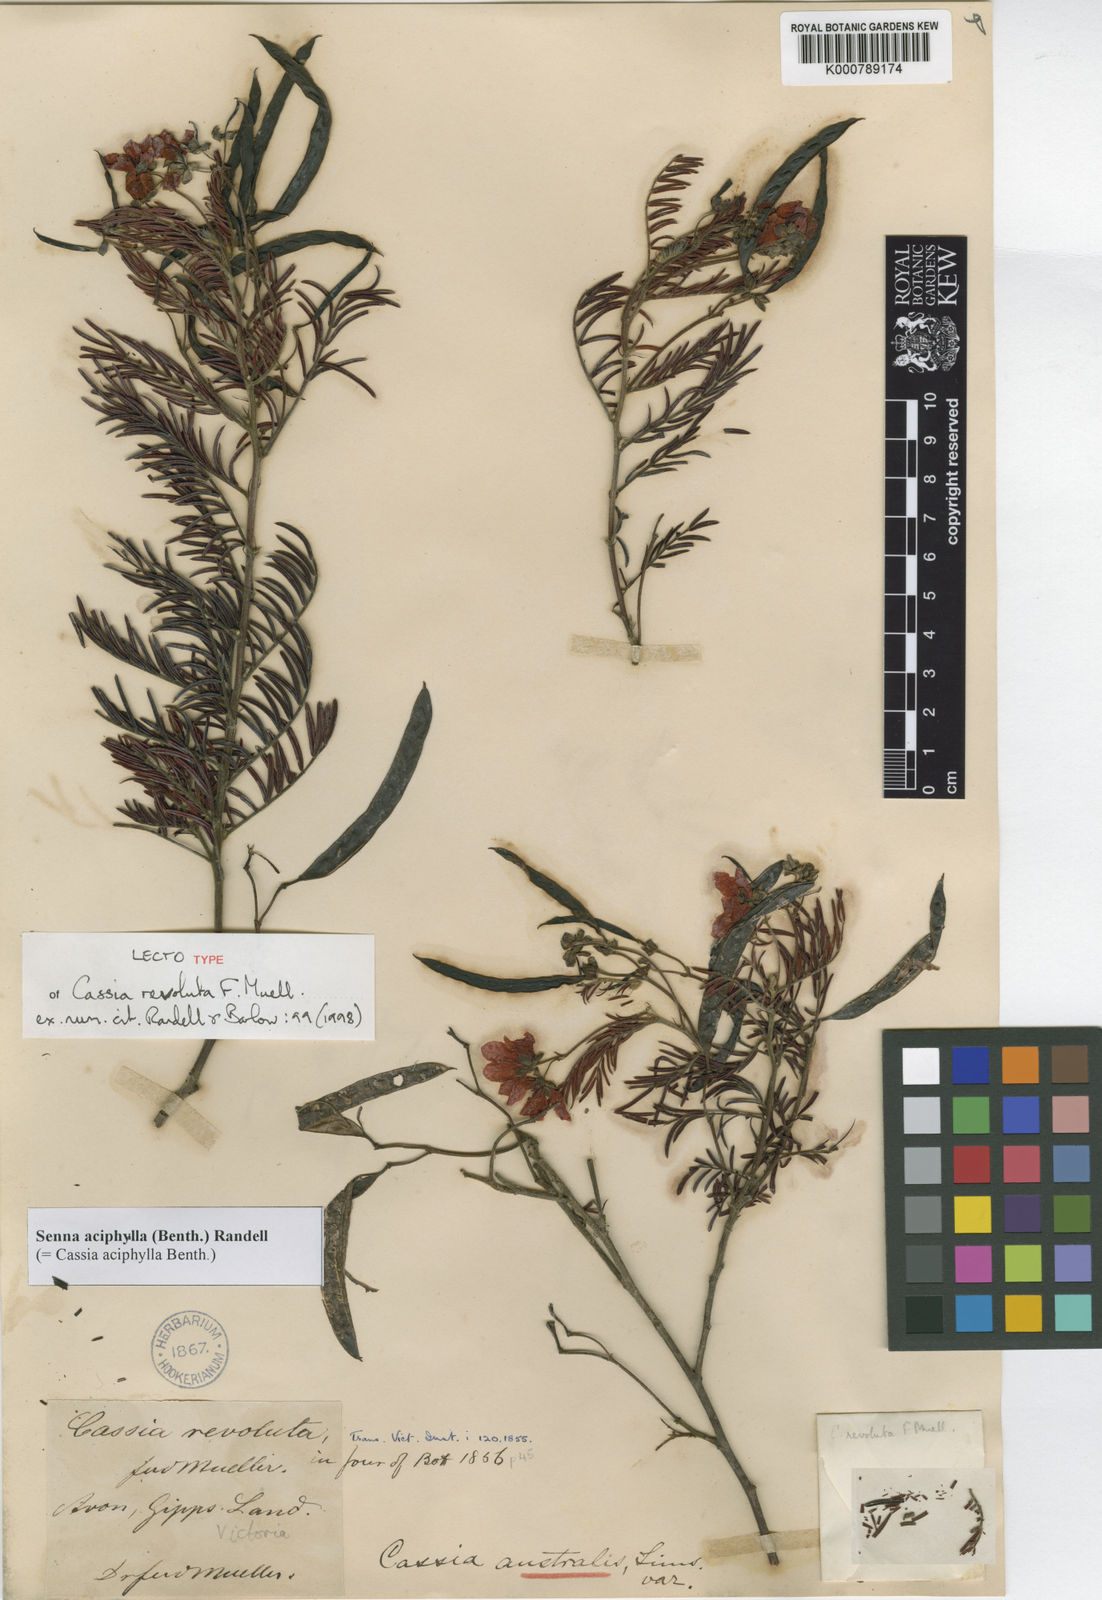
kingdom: Plantae
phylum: Tracheophyta
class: Magnoliopsida
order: Fabales
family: Fabaceae
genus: Senna
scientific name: Senna aciphylla
